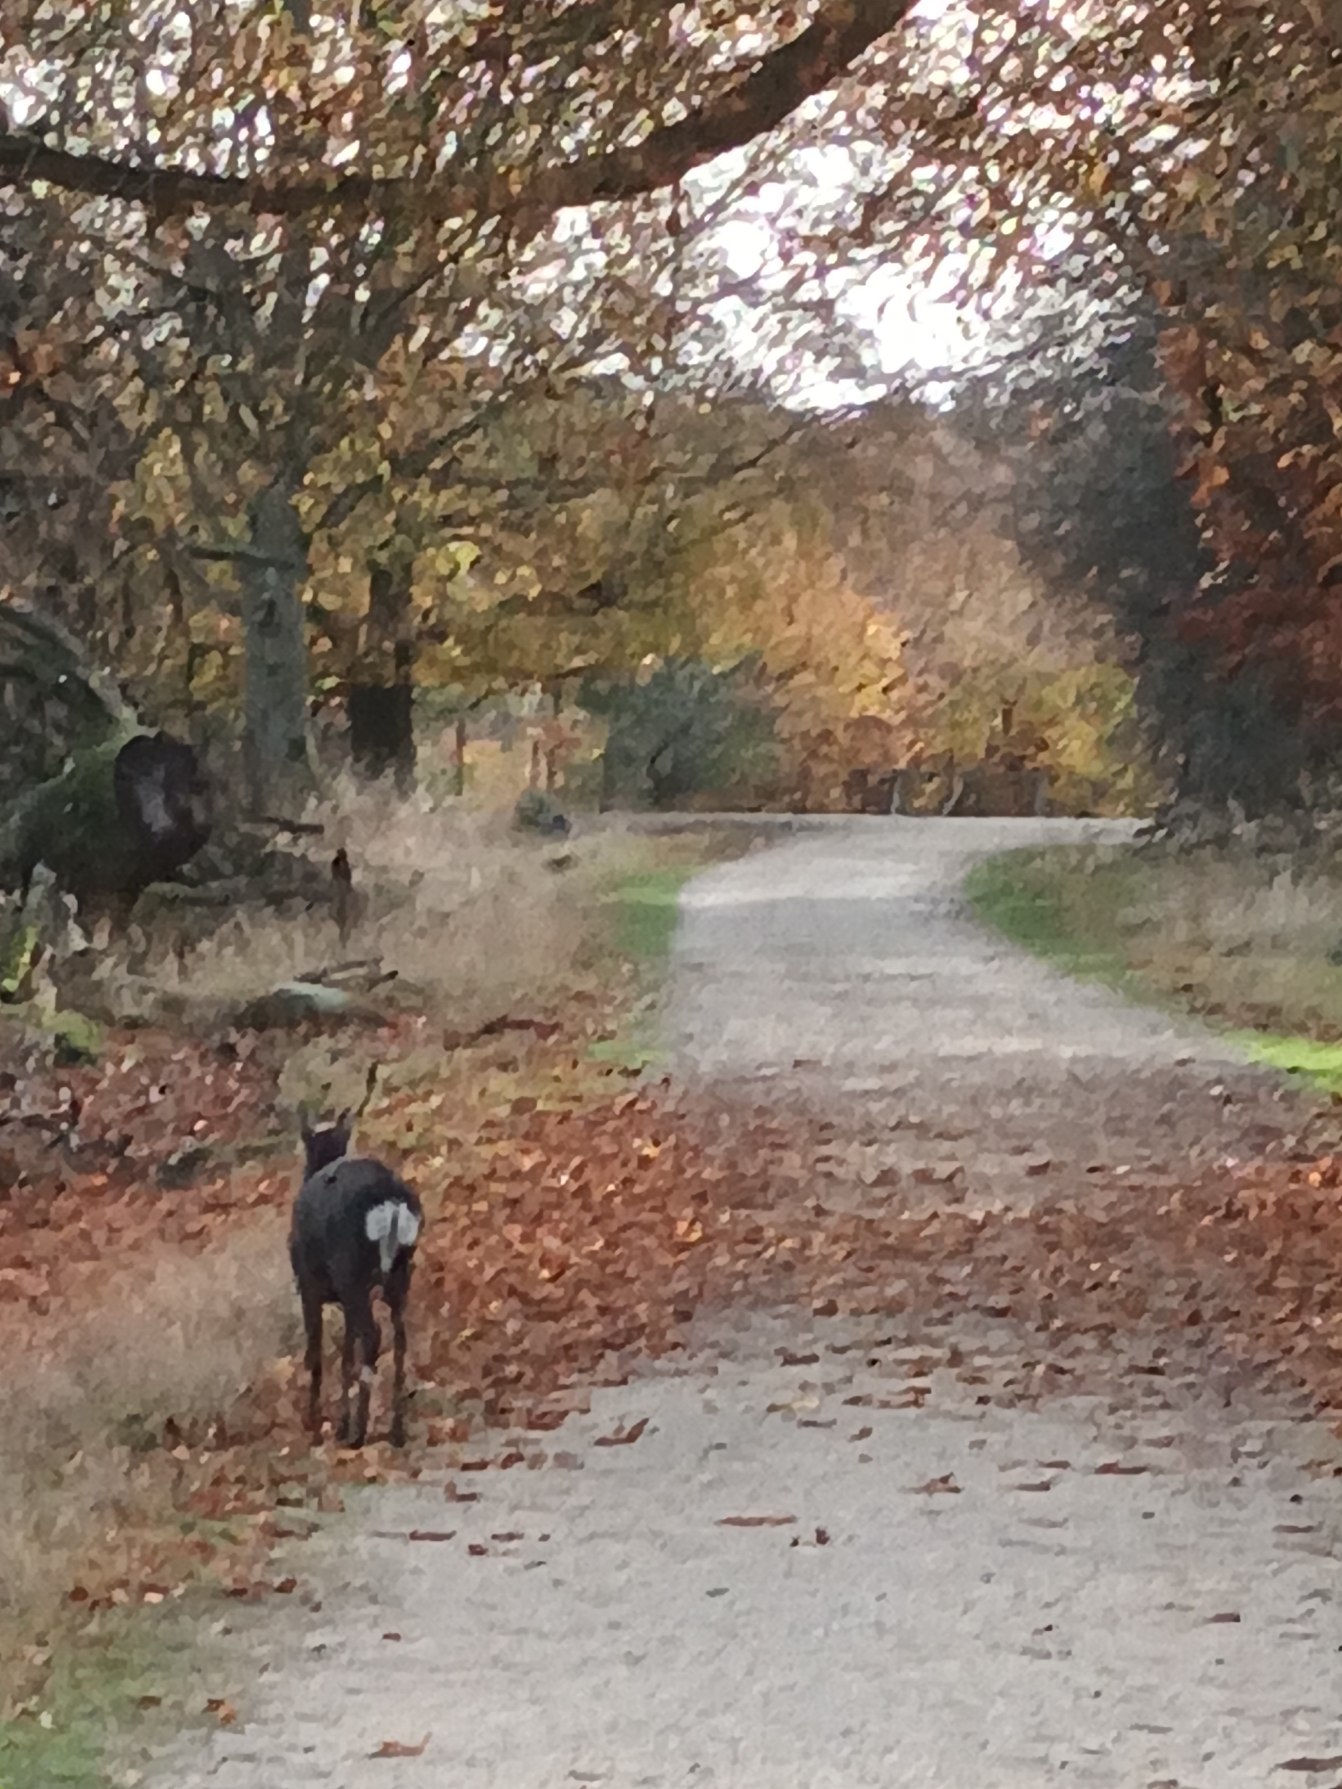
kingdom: Animalia
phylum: Chordata
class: Mammalia
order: Artiodactyla
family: Cervidae
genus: Cervus
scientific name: Cervus nippon
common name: Sika
